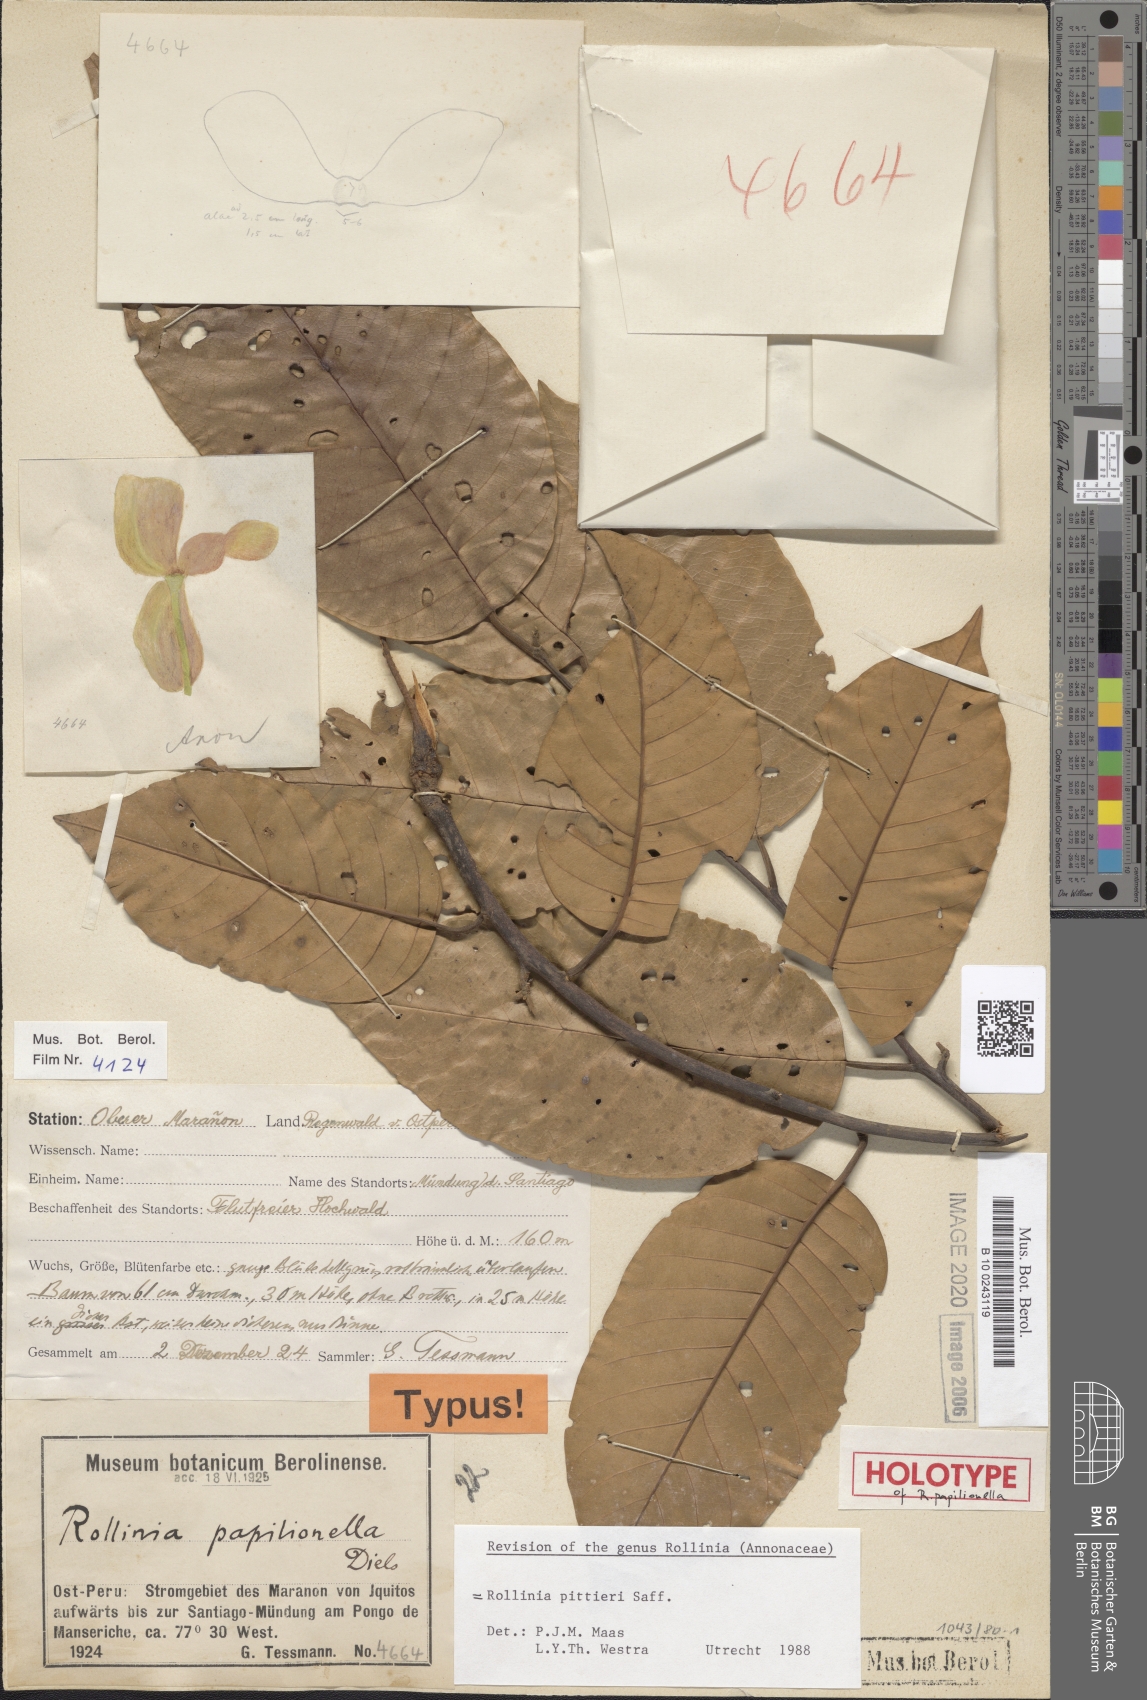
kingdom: Plantae
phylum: Tracheophyta
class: Magnoliopsida
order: Magnoliales
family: Annonaceae
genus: Annona
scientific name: Annona papilionella
